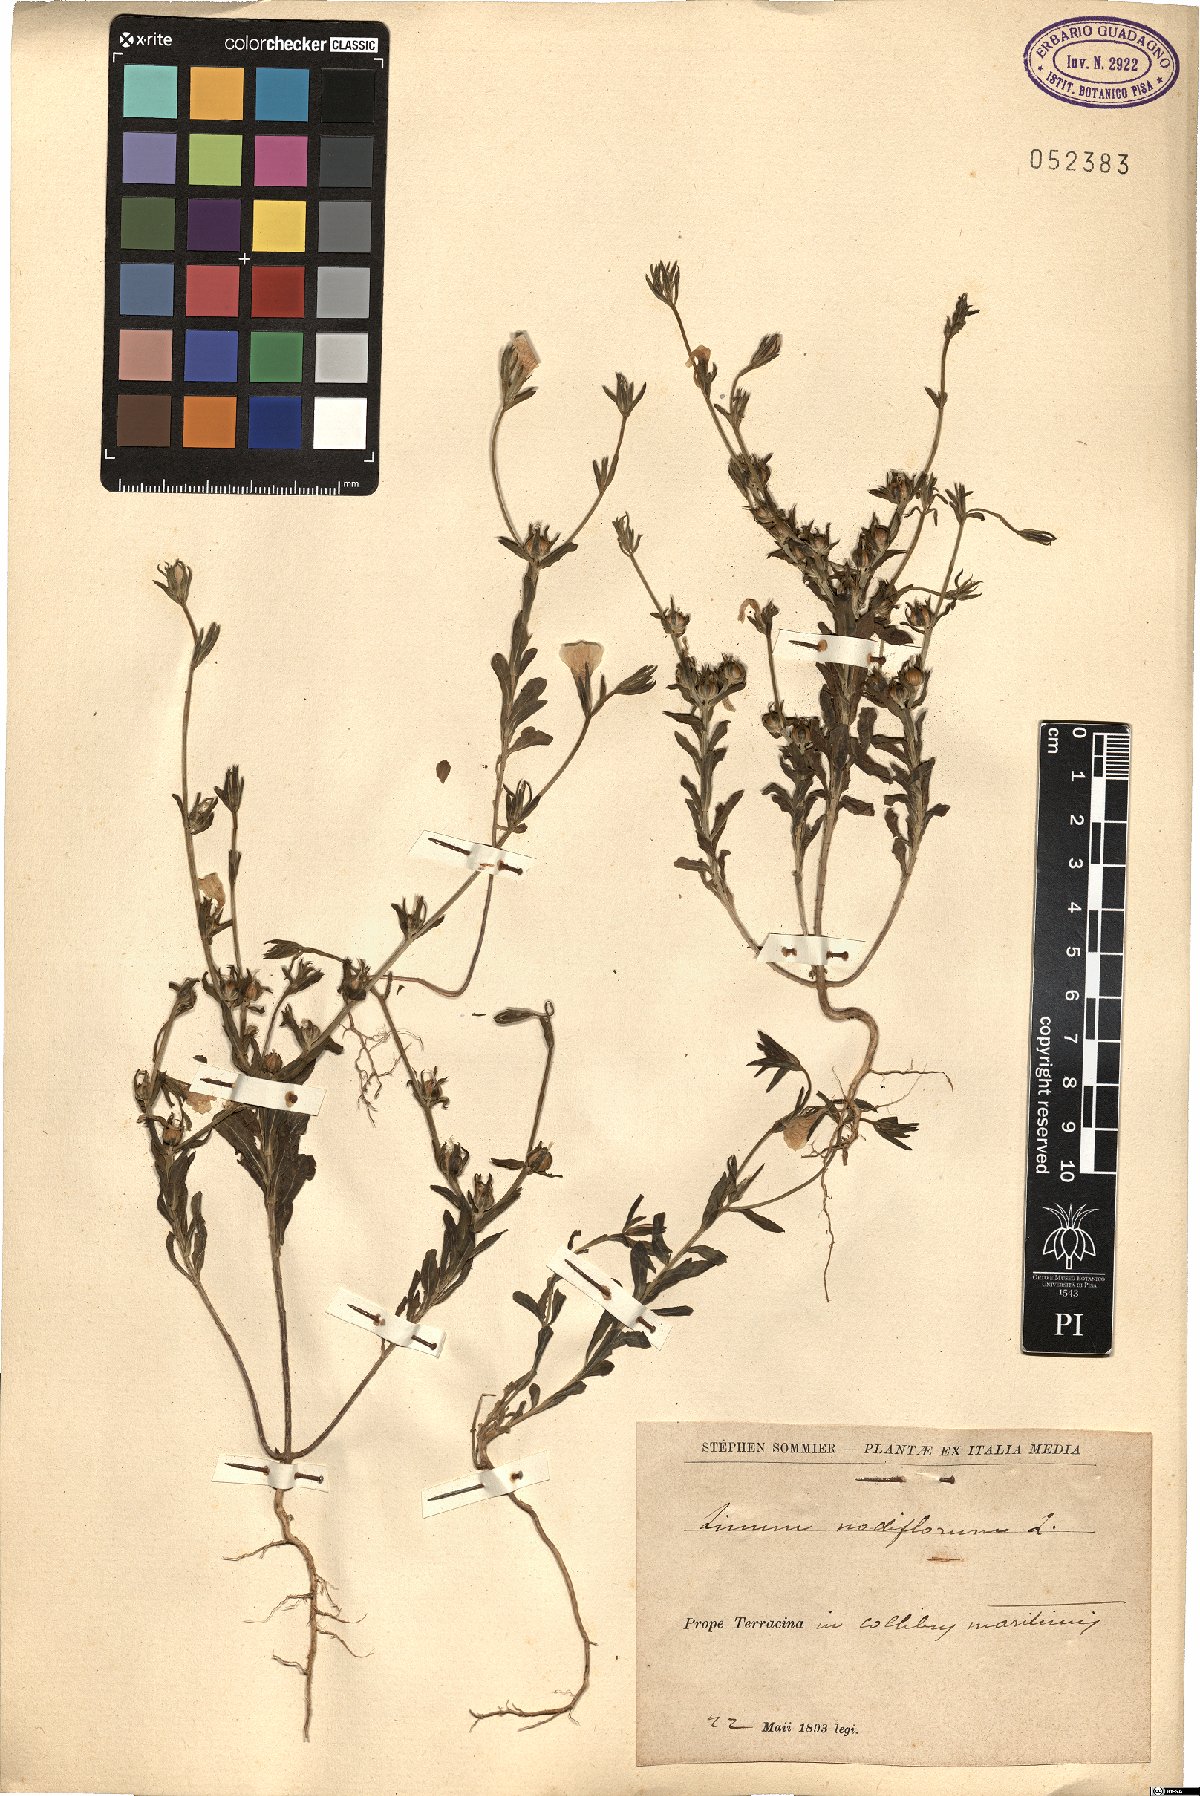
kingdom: Plantae
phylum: Tracheophyta
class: Magnoliopsida
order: Malpighiales
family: Linaceae
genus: Linum
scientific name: Linum nodiflorum
